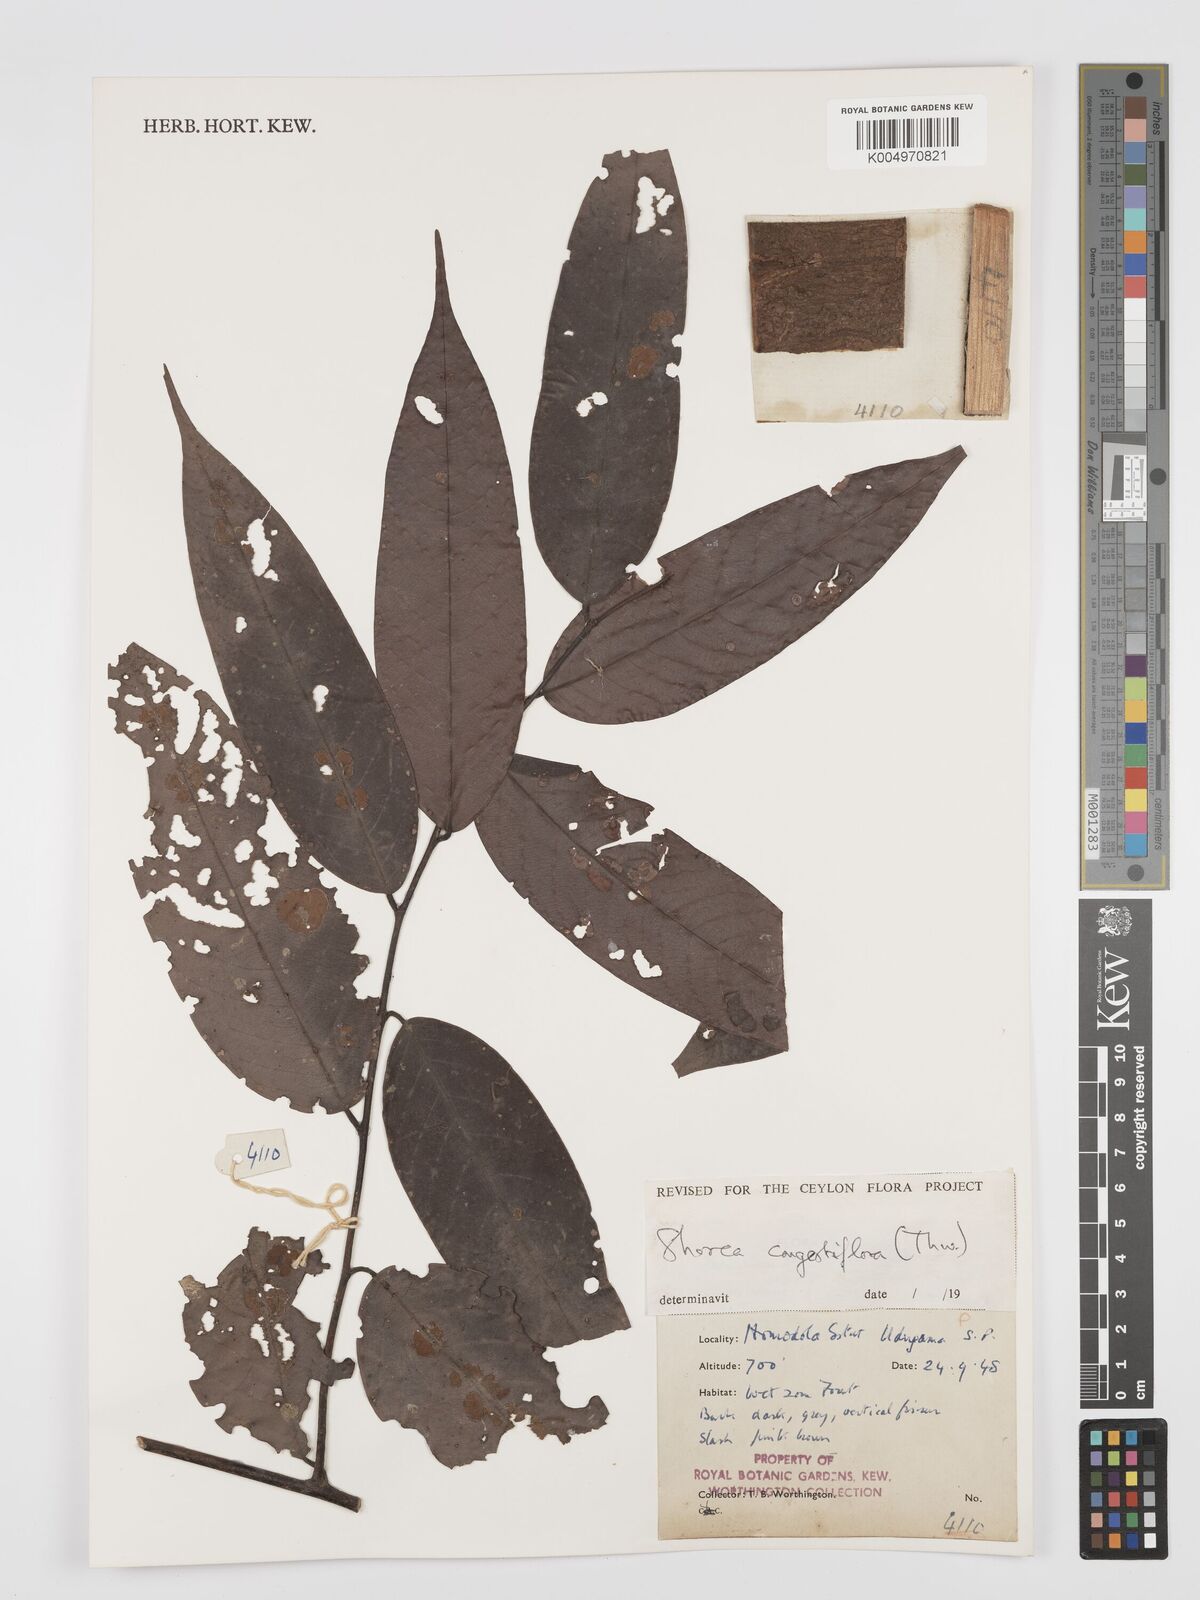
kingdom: Plantae
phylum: Tracheophyta
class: Magnoliopsida
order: Malvales
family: Dipterocarpaceae
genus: Doona
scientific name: Doona congestiflora
